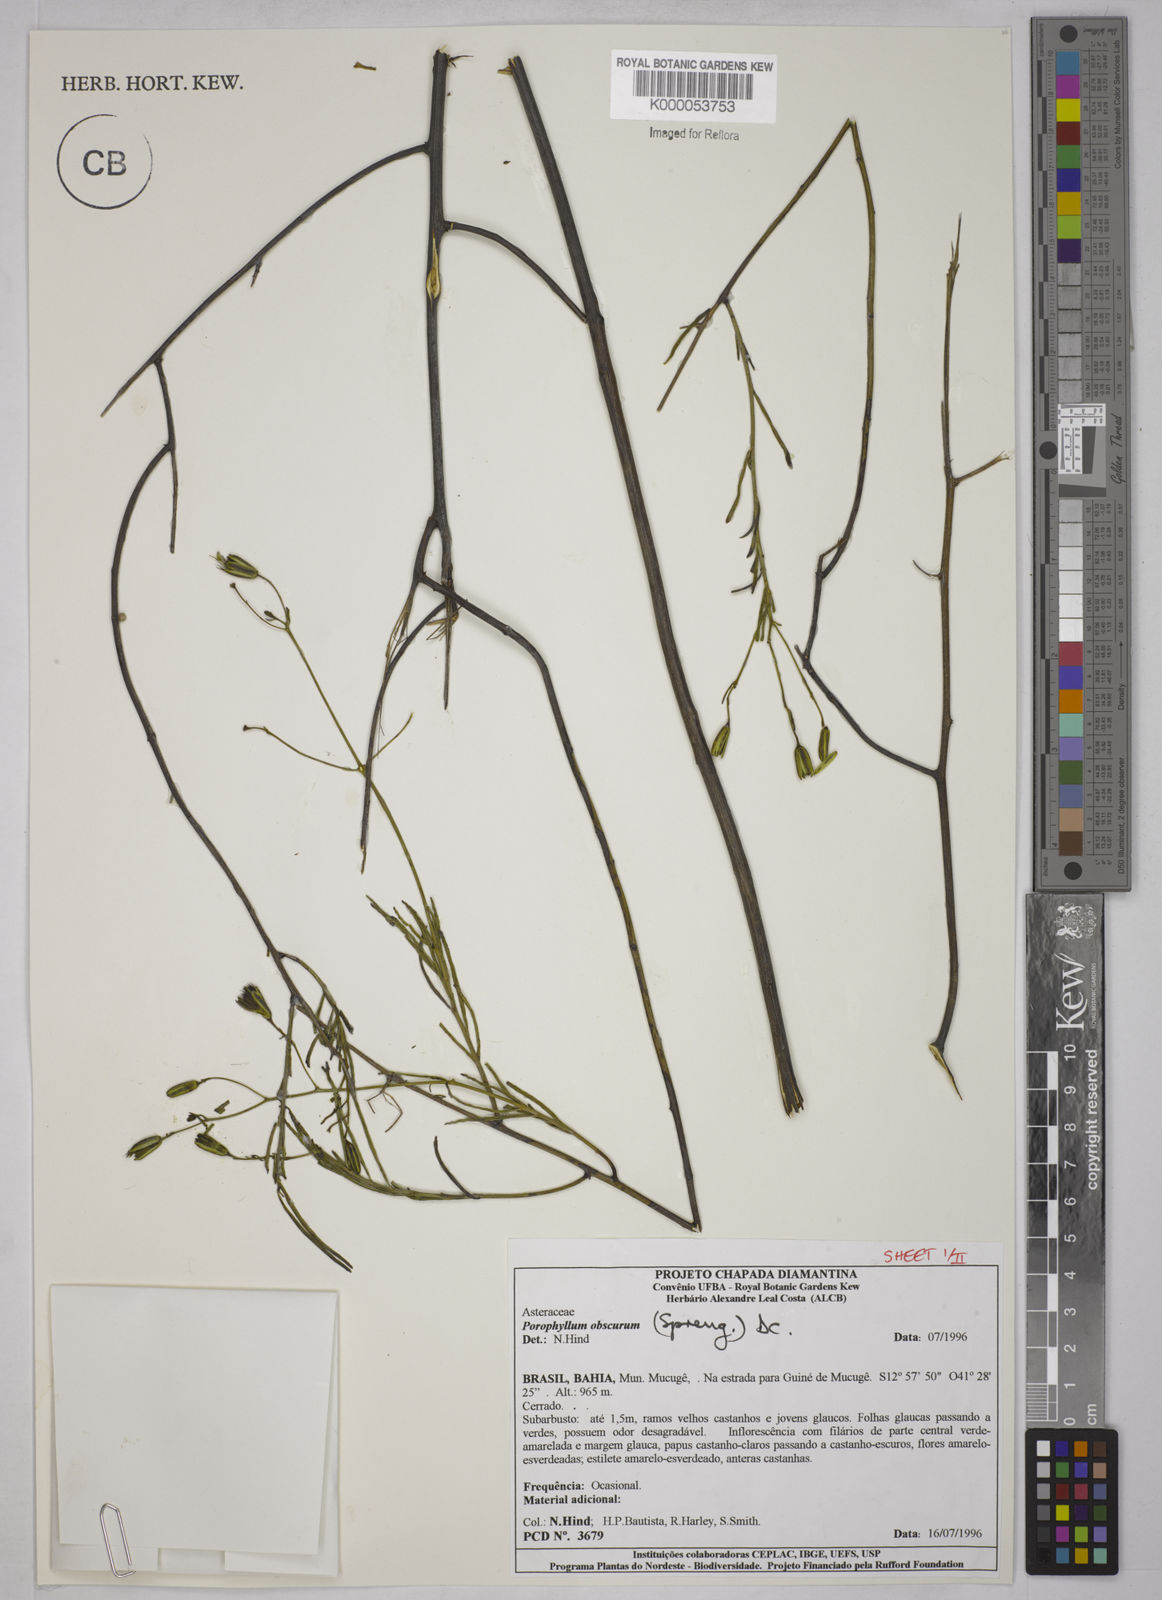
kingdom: Plantae
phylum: Tracheophyta
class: Magnoliopsida
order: Asterales
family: Asteraceae
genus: Porophyllum
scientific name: Porophyllum angustissimum
